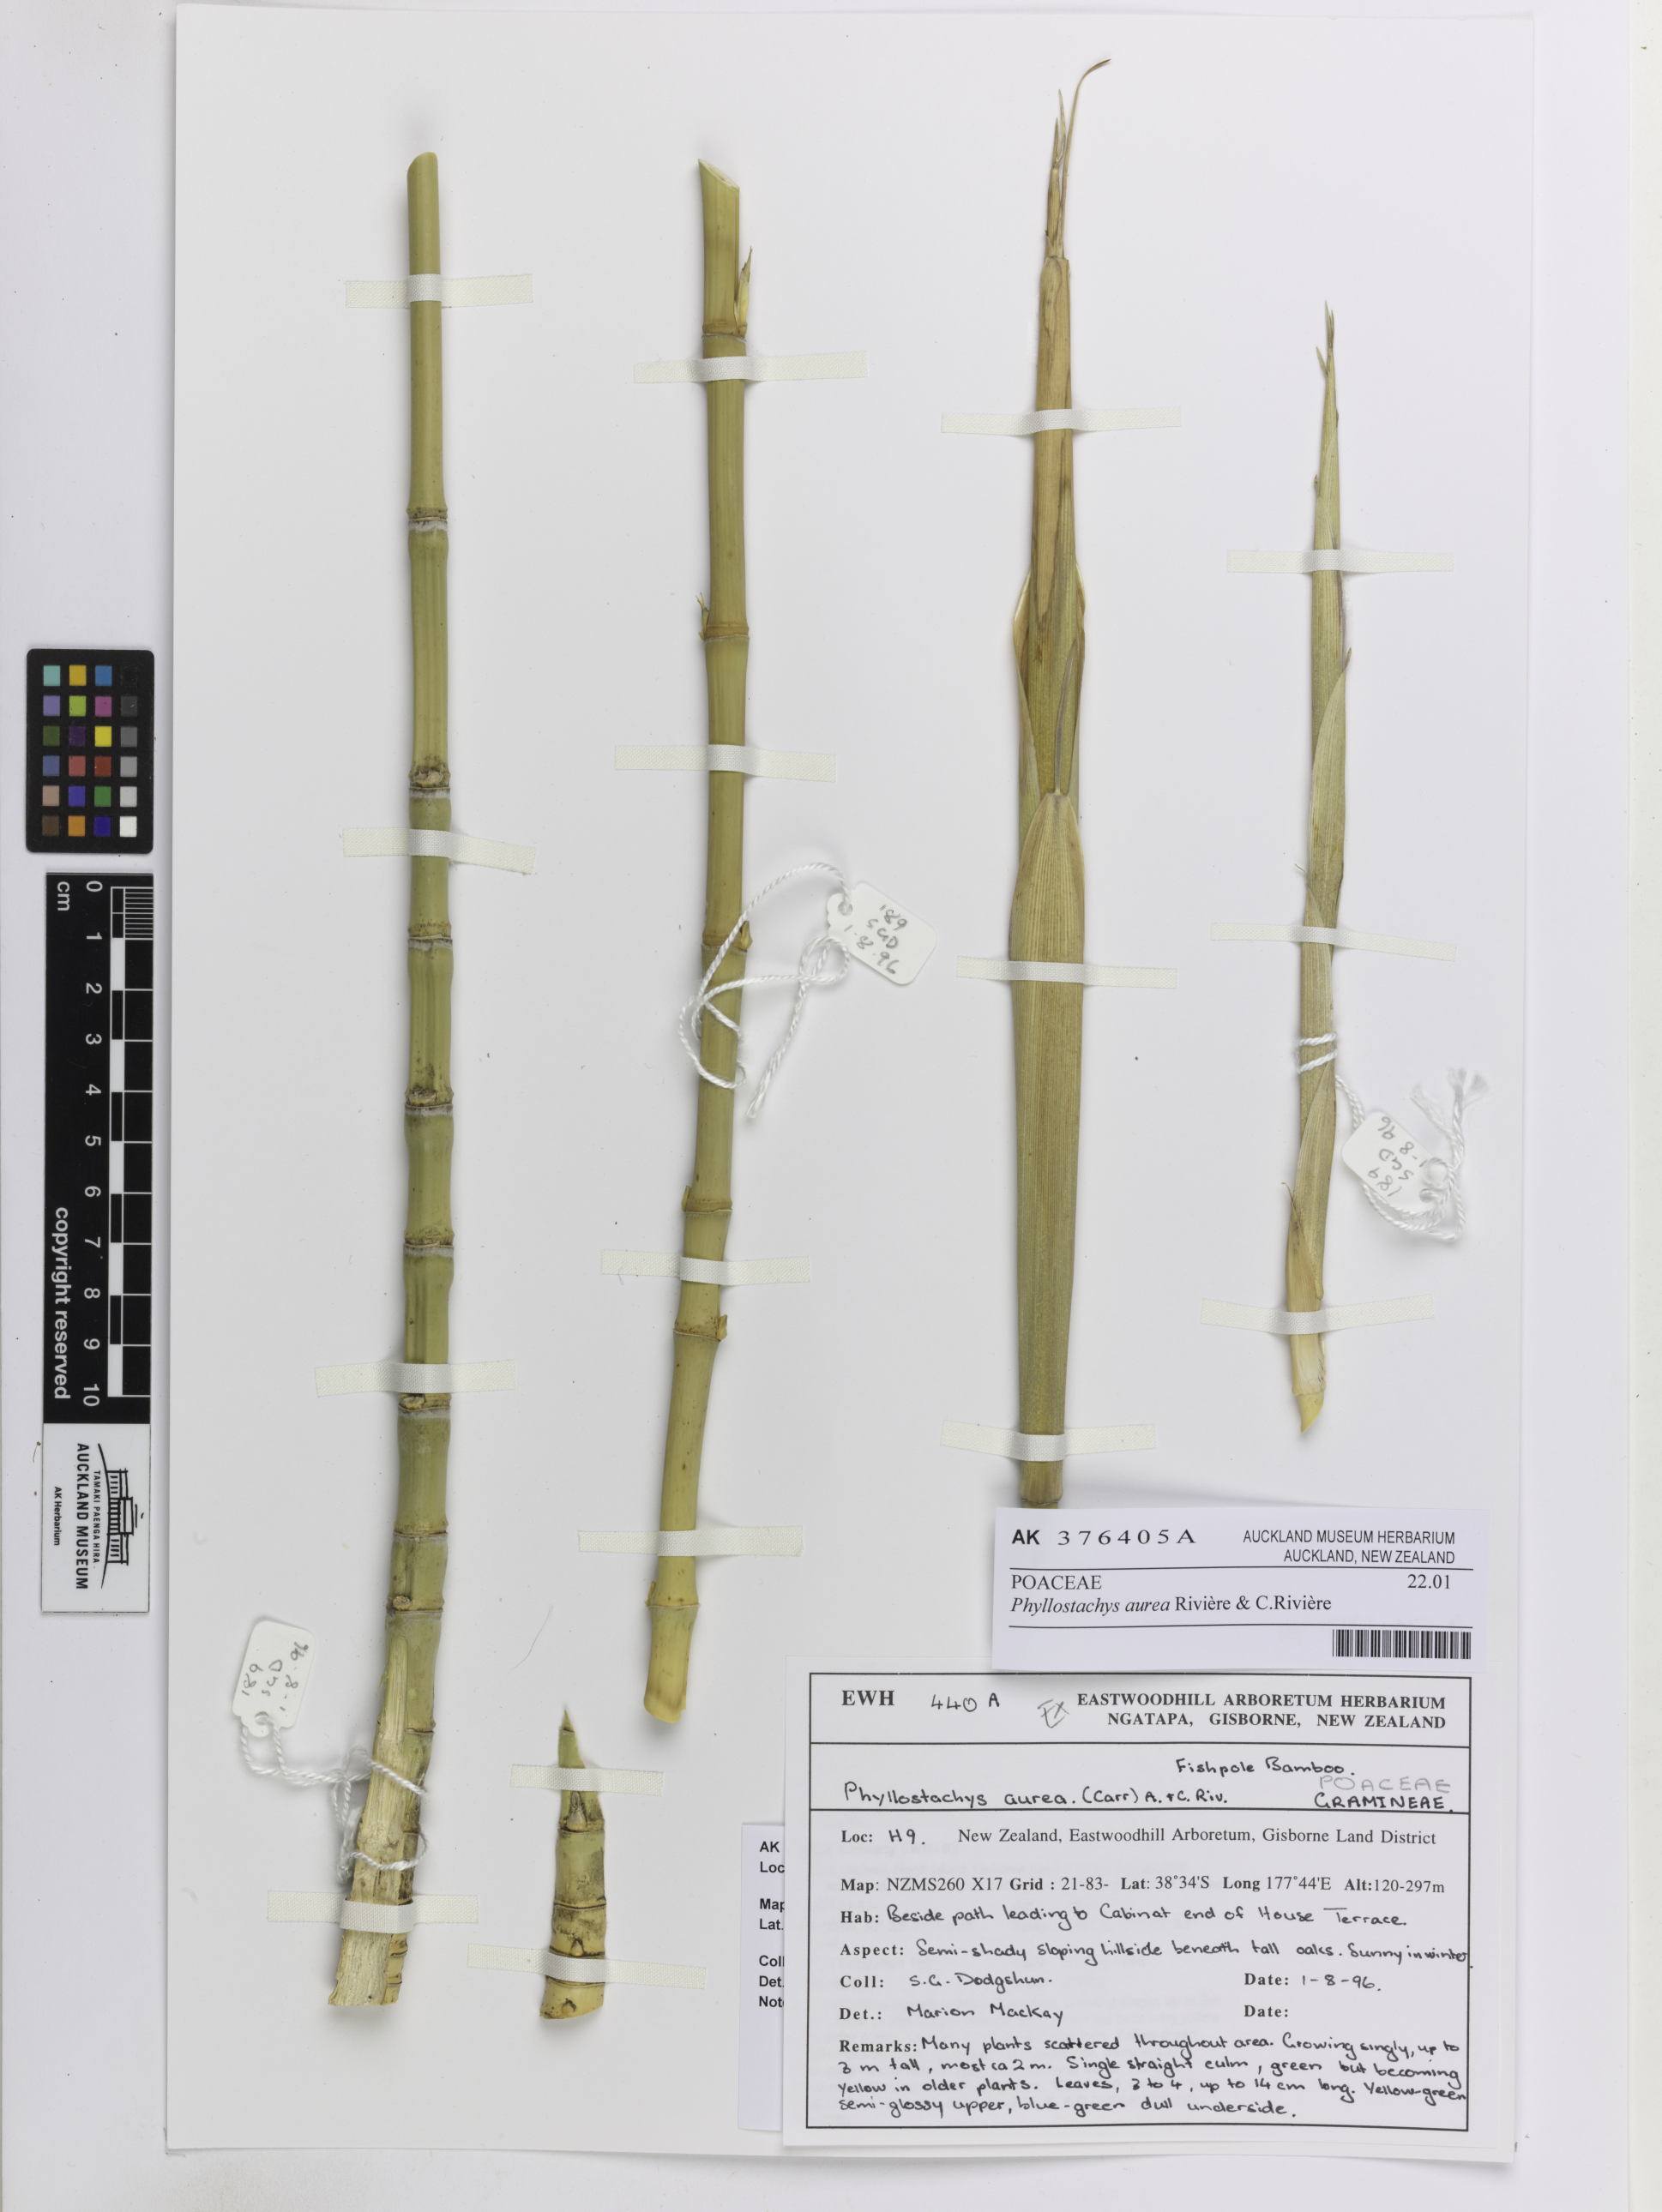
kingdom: Plantae
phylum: Tracheophyta
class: Liliopsida
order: Poales
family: Poaceae
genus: Phyllostachys
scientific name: Phyllostachys aurea
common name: Golden bamboo
